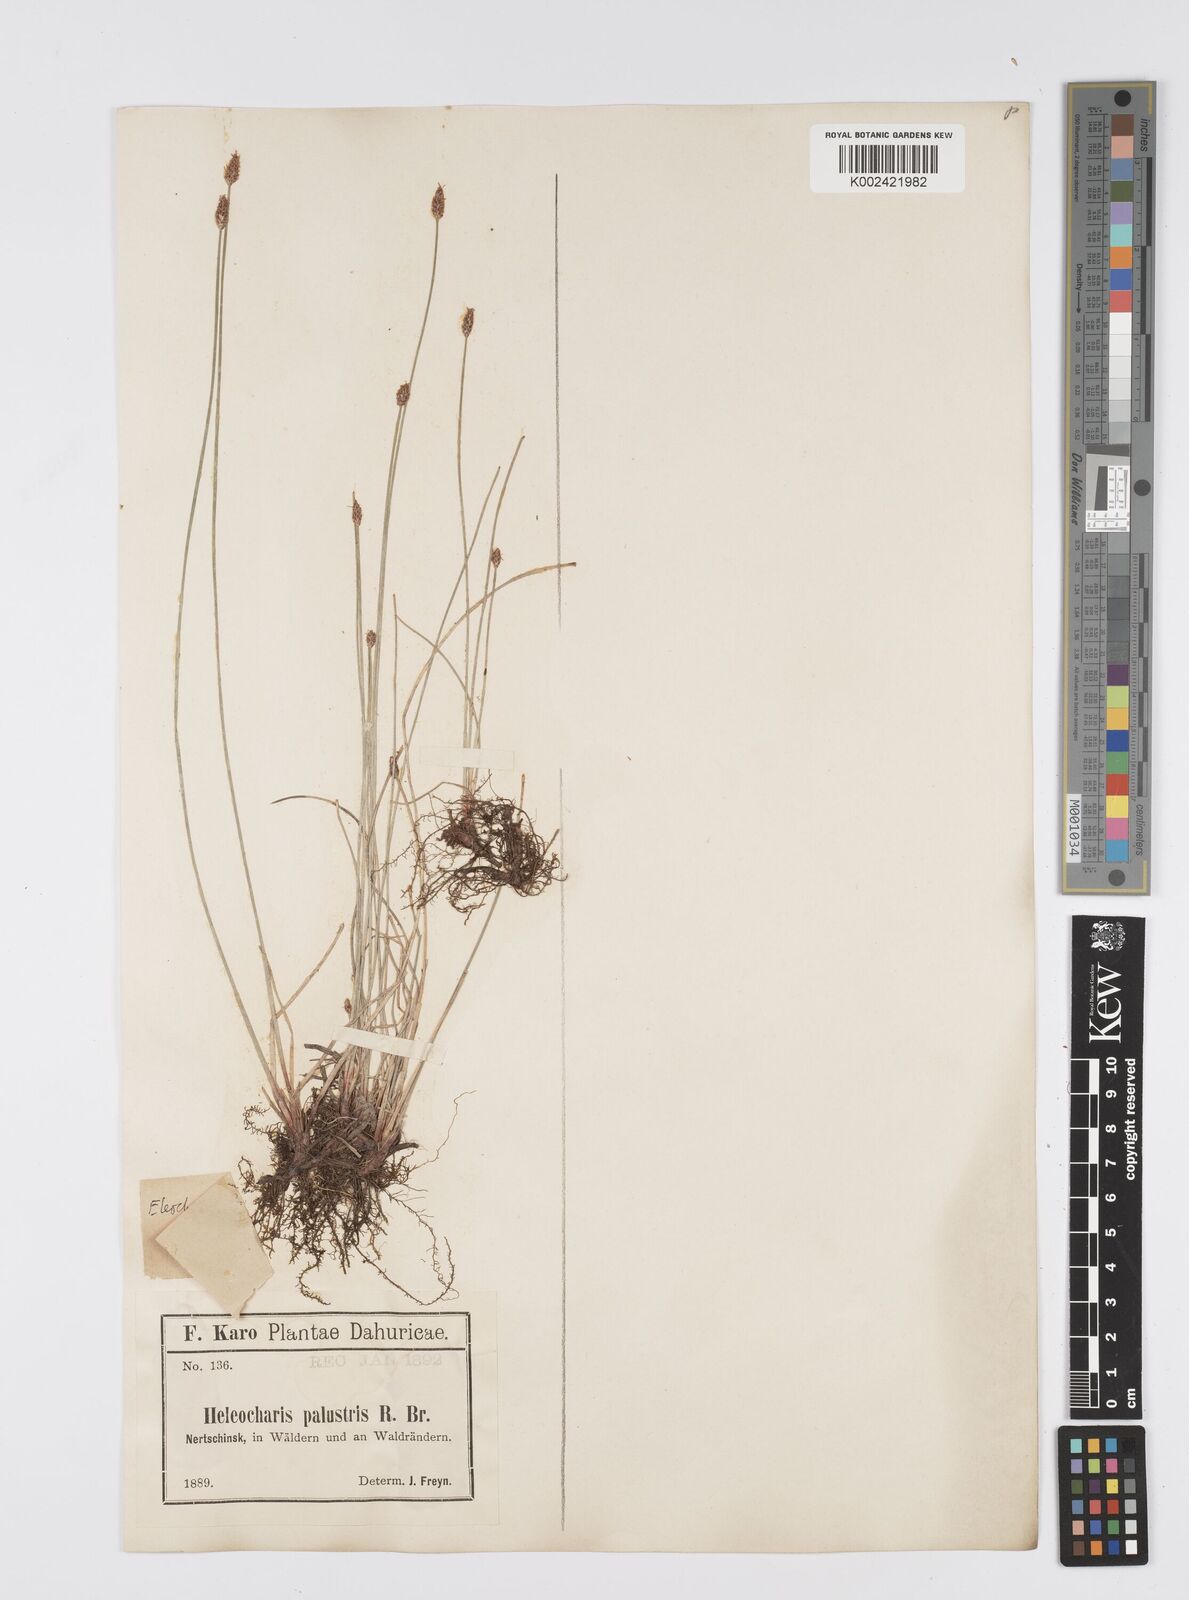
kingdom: Plantae
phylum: Tracheophyta
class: Liliopsida
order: Poales
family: Cyperaceae
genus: Eleocharis
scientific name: Eleocharis palustris
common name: Common spike-rush
